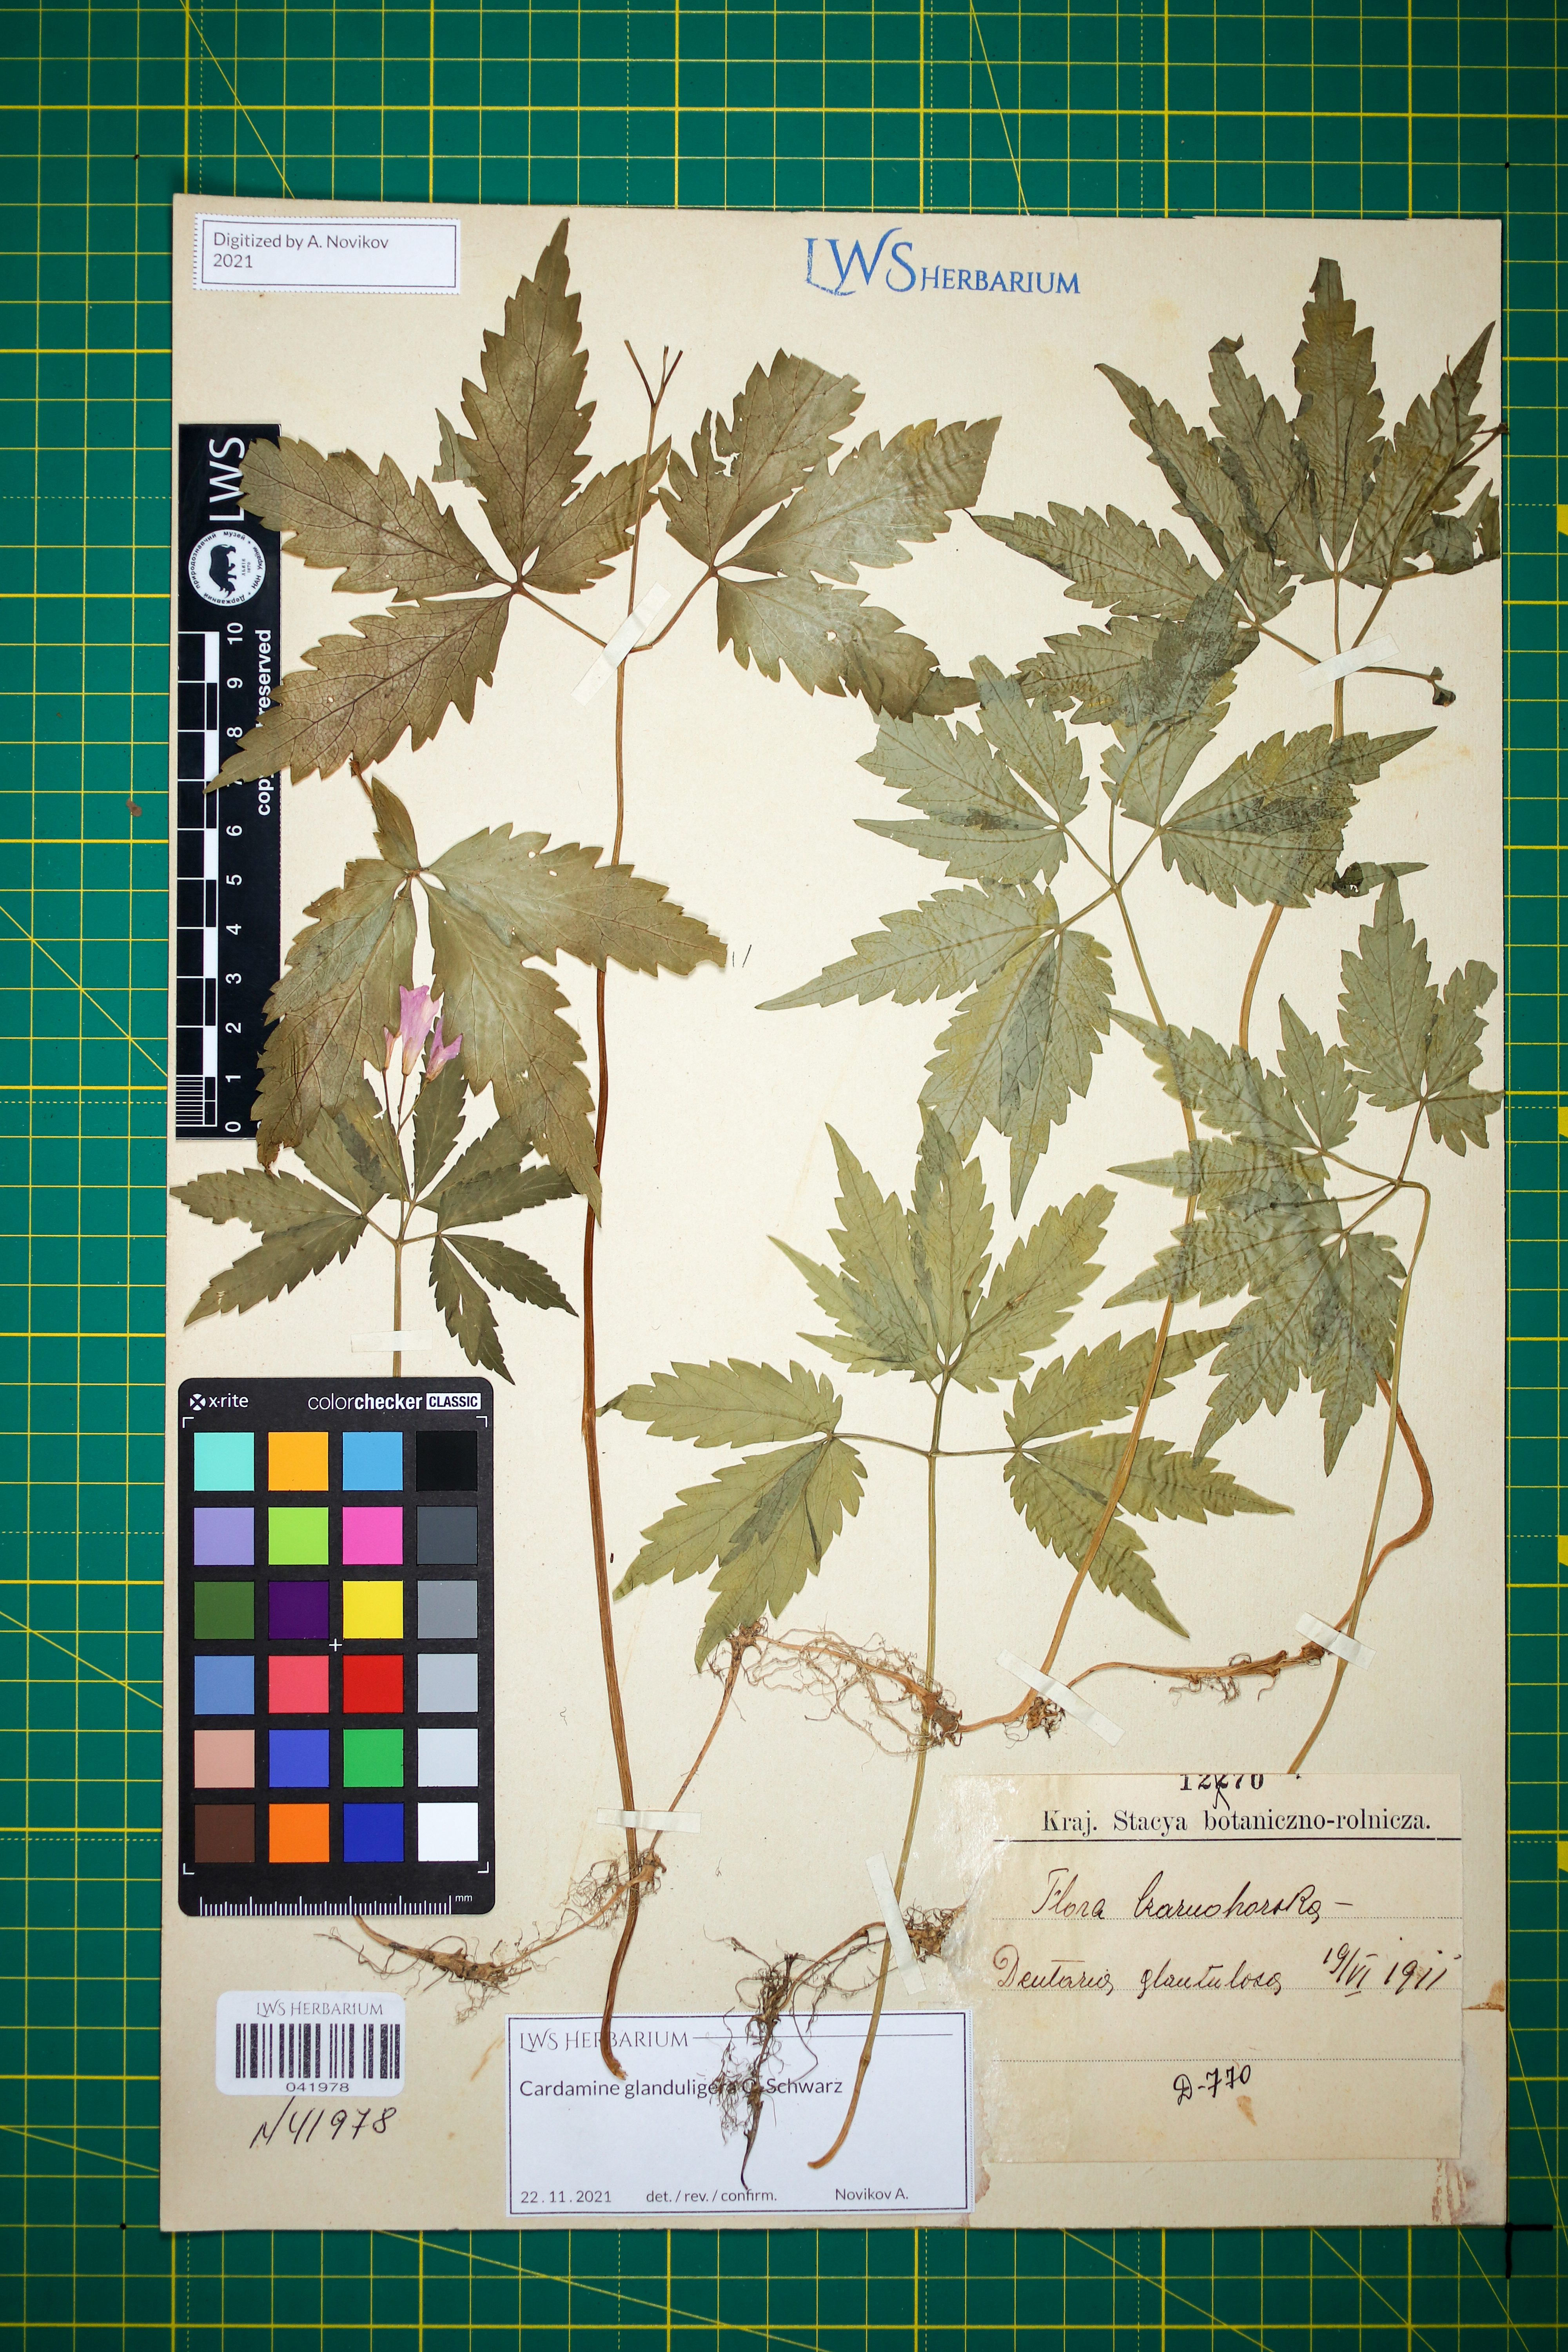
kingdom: Plantae
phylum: Tracheophyta
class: Magnoliopsida
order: Brassicales
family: Brassicaceae
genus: Cardamine
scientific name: Cardamine glanduligera
